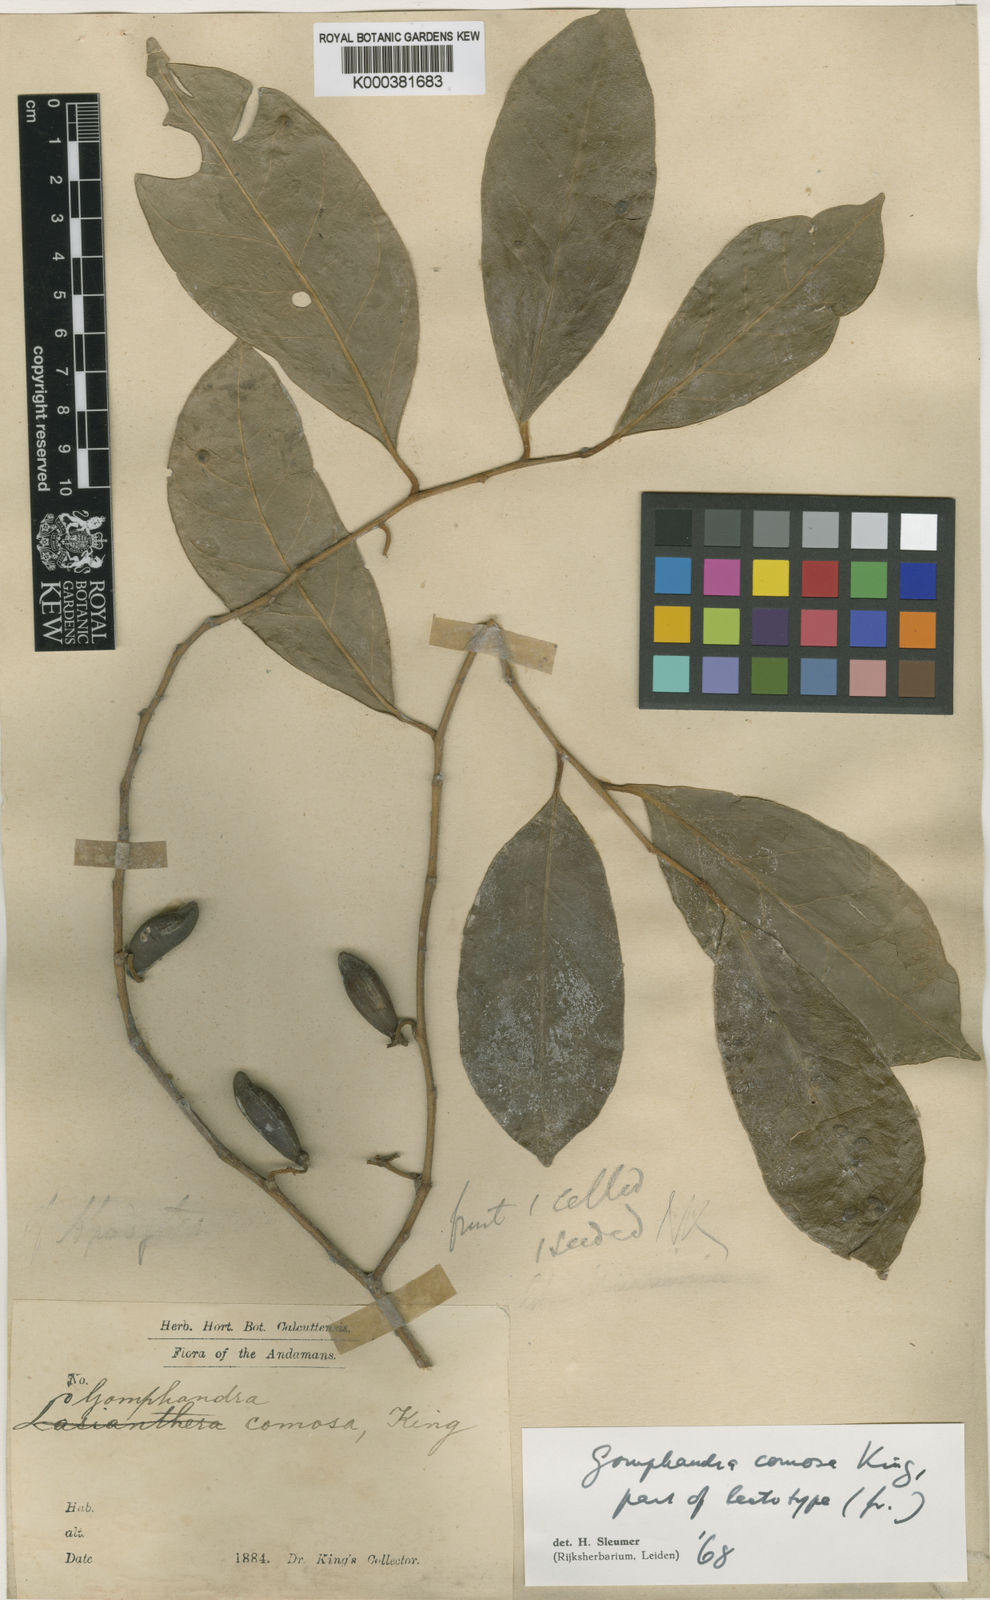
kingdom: Plantae
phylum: Tracheophyta
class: Magnoliopsida
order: Cardiopteridales
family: Stemonuraceae
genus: Gomphandra
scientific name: Gomphandra comosa
